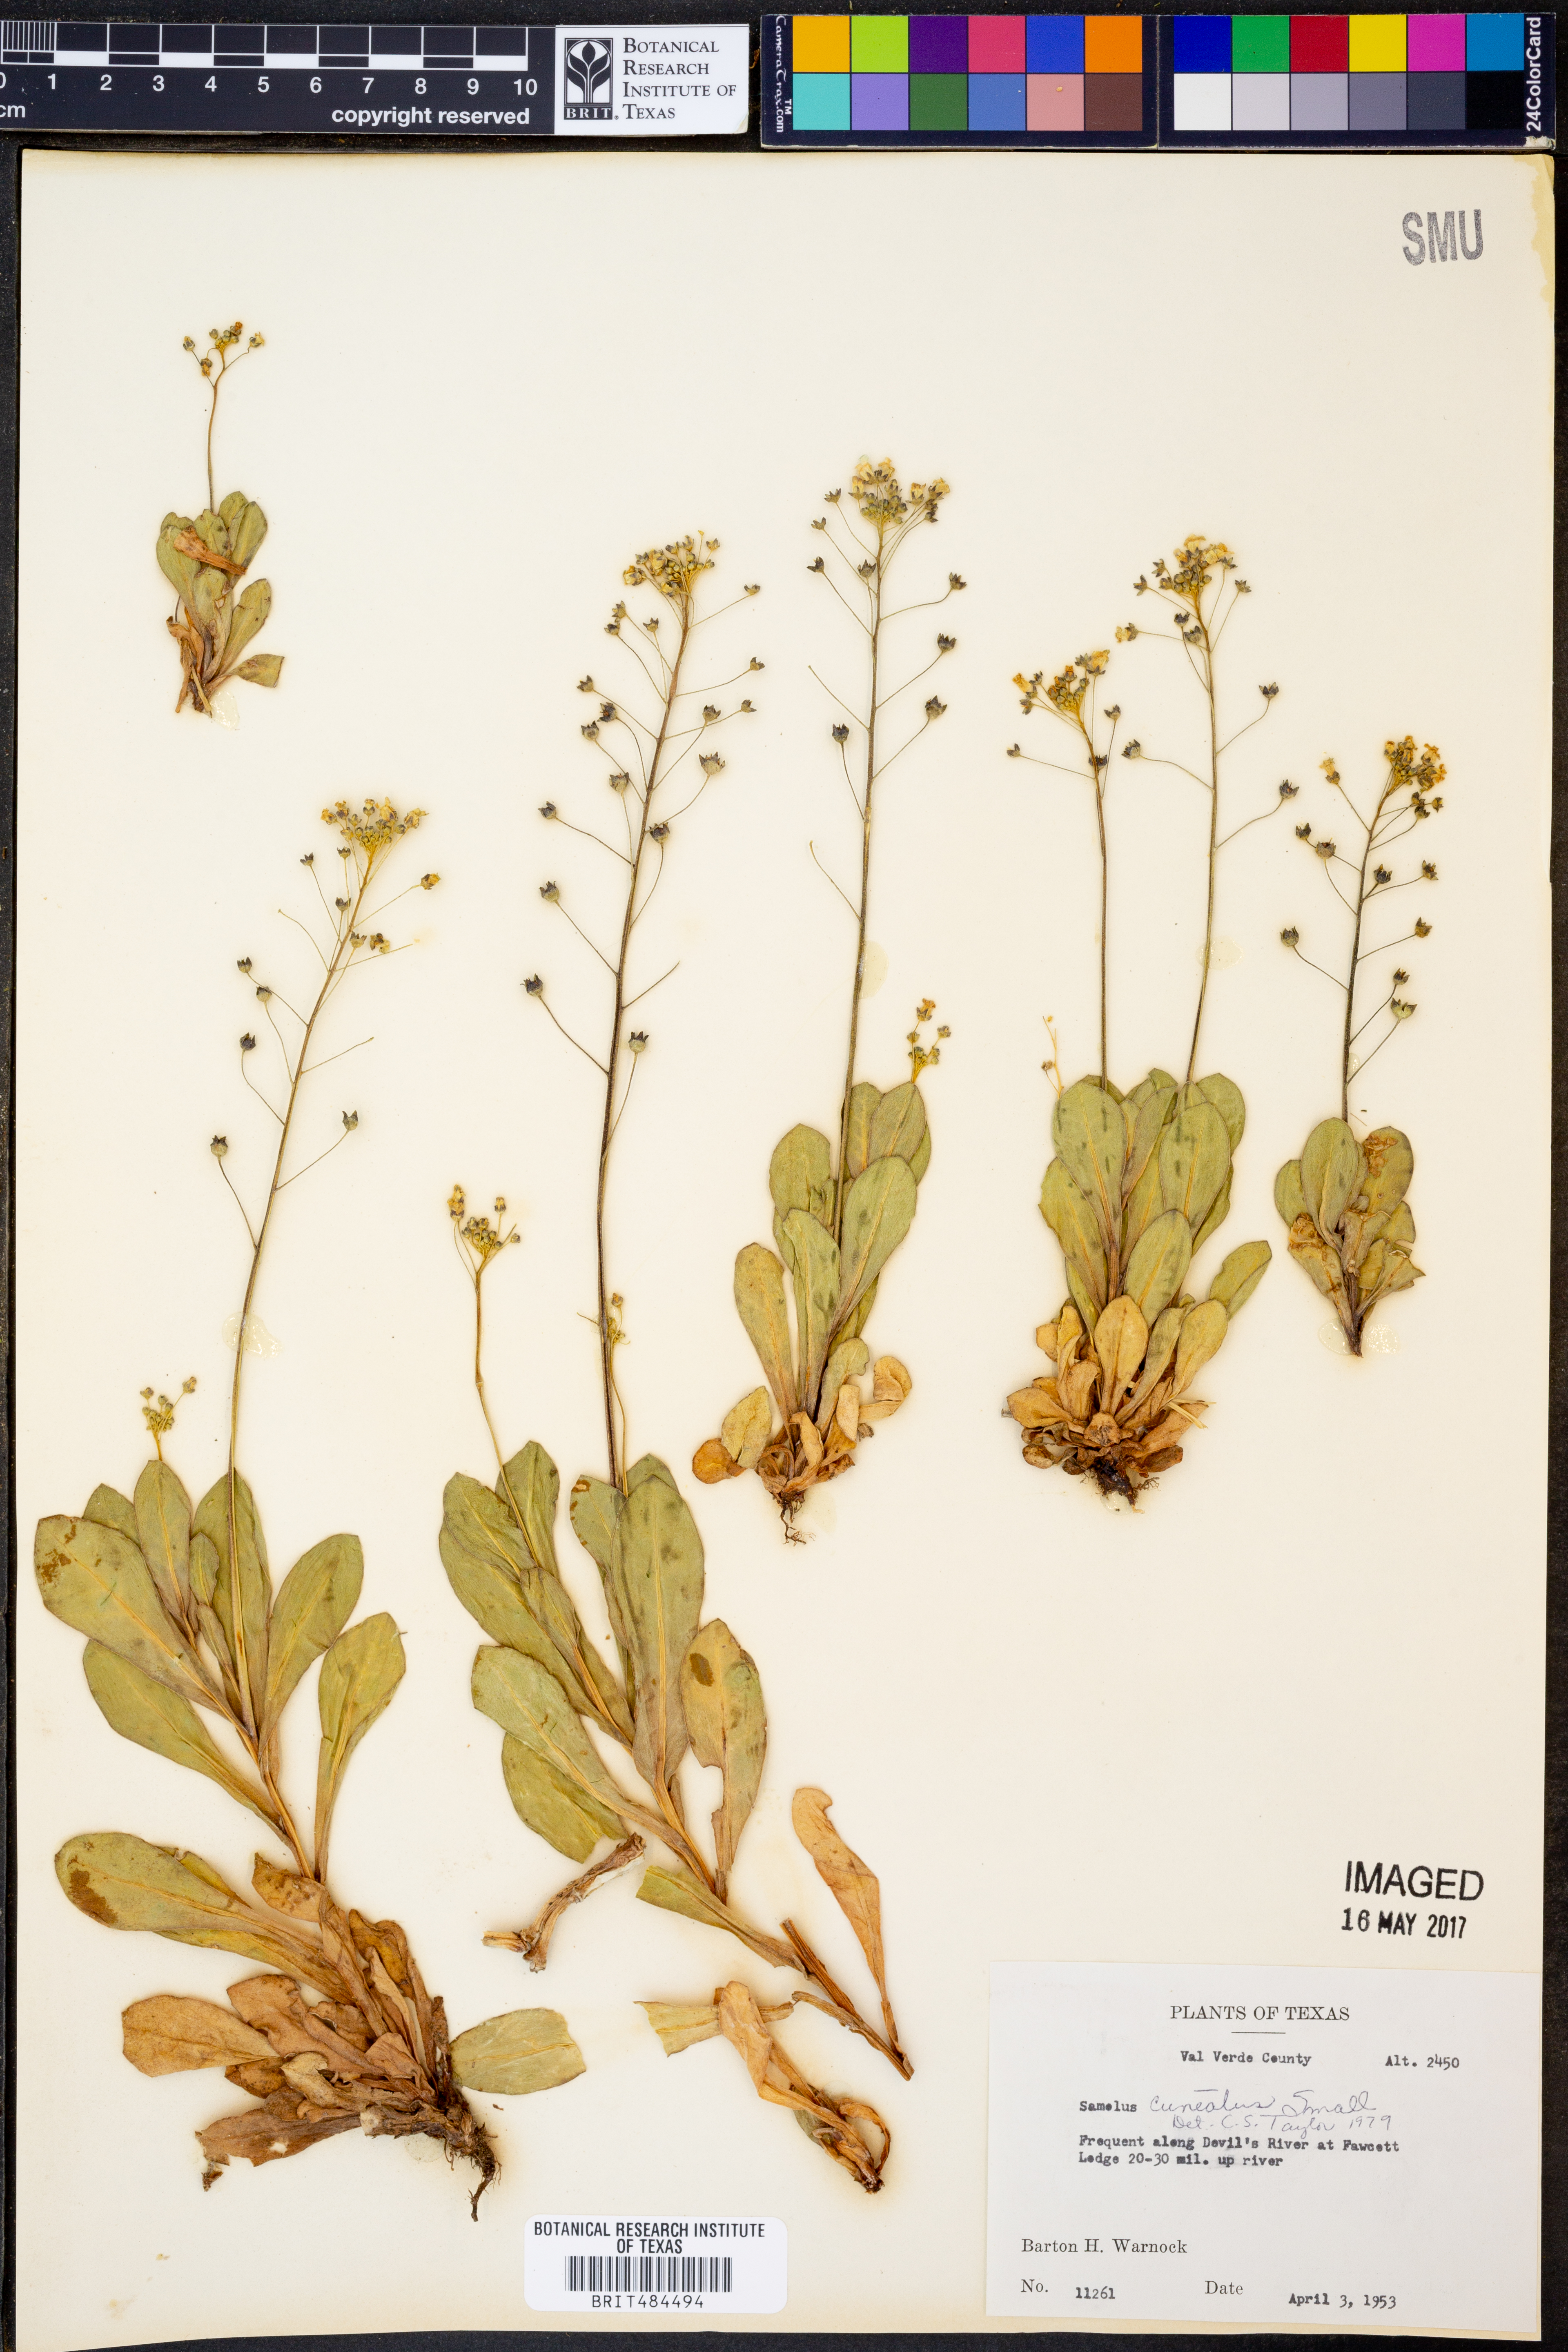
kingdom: Plantae
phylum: Tracheophyta
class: Magnoliopsida
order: Ericales
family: Primulaceae
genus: Samolus
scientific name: Samolus ebracteatus
